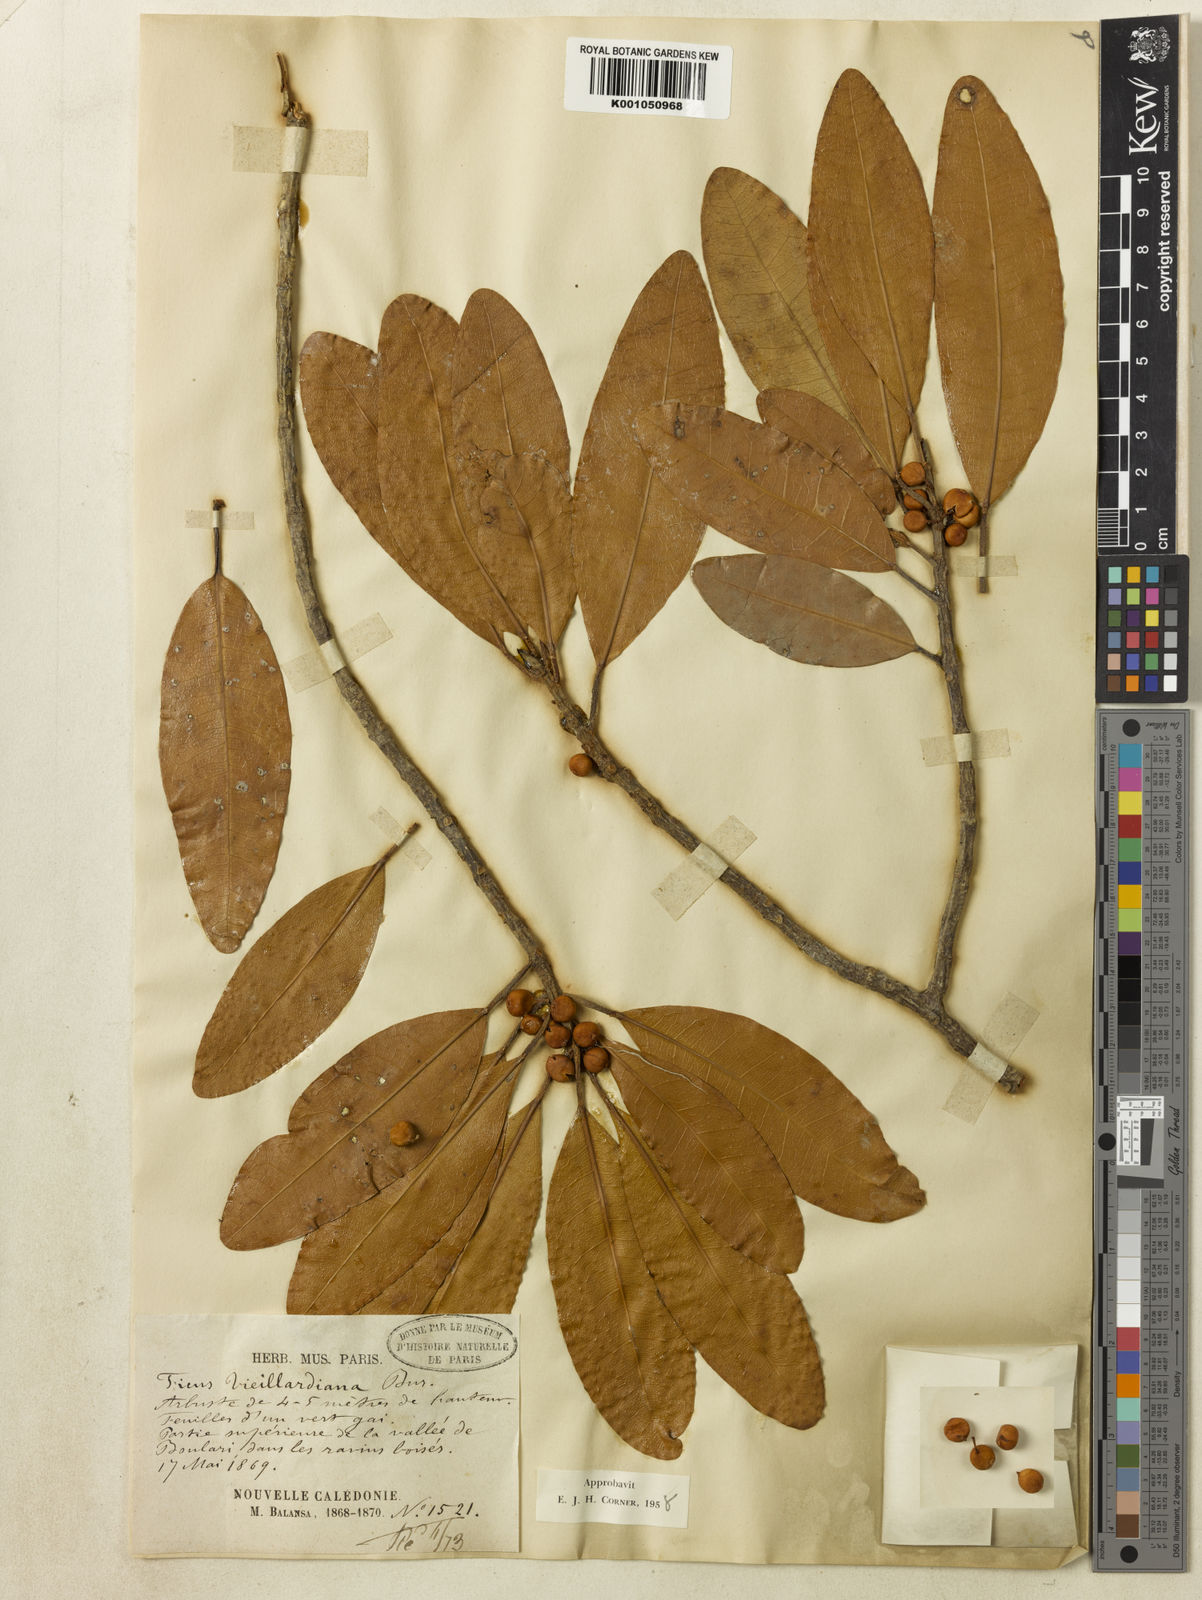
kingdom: Plantae
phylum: Tracheophyta
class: Magnoliopsida
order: Rosales
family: Moraceae
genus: Ficus
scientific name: Ficus vieillardiana
